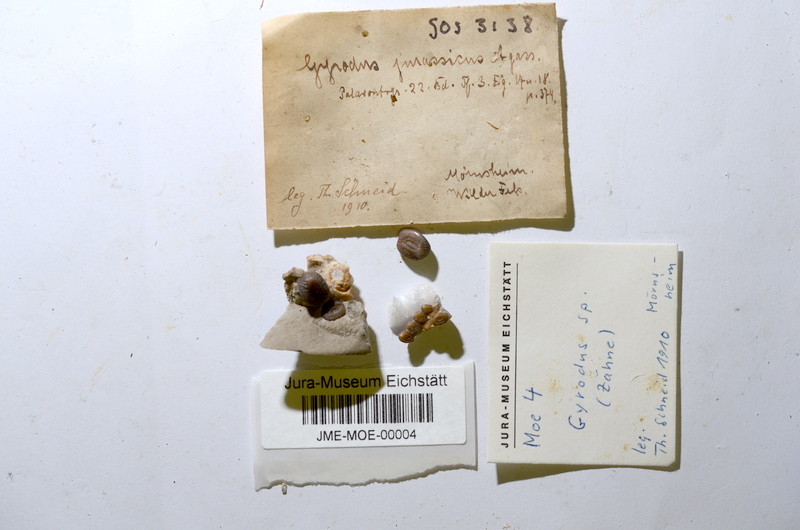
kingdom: Animalia
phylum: Chordata
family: Gyrodontidae
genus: Gyrodus
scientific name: Gyrodus
